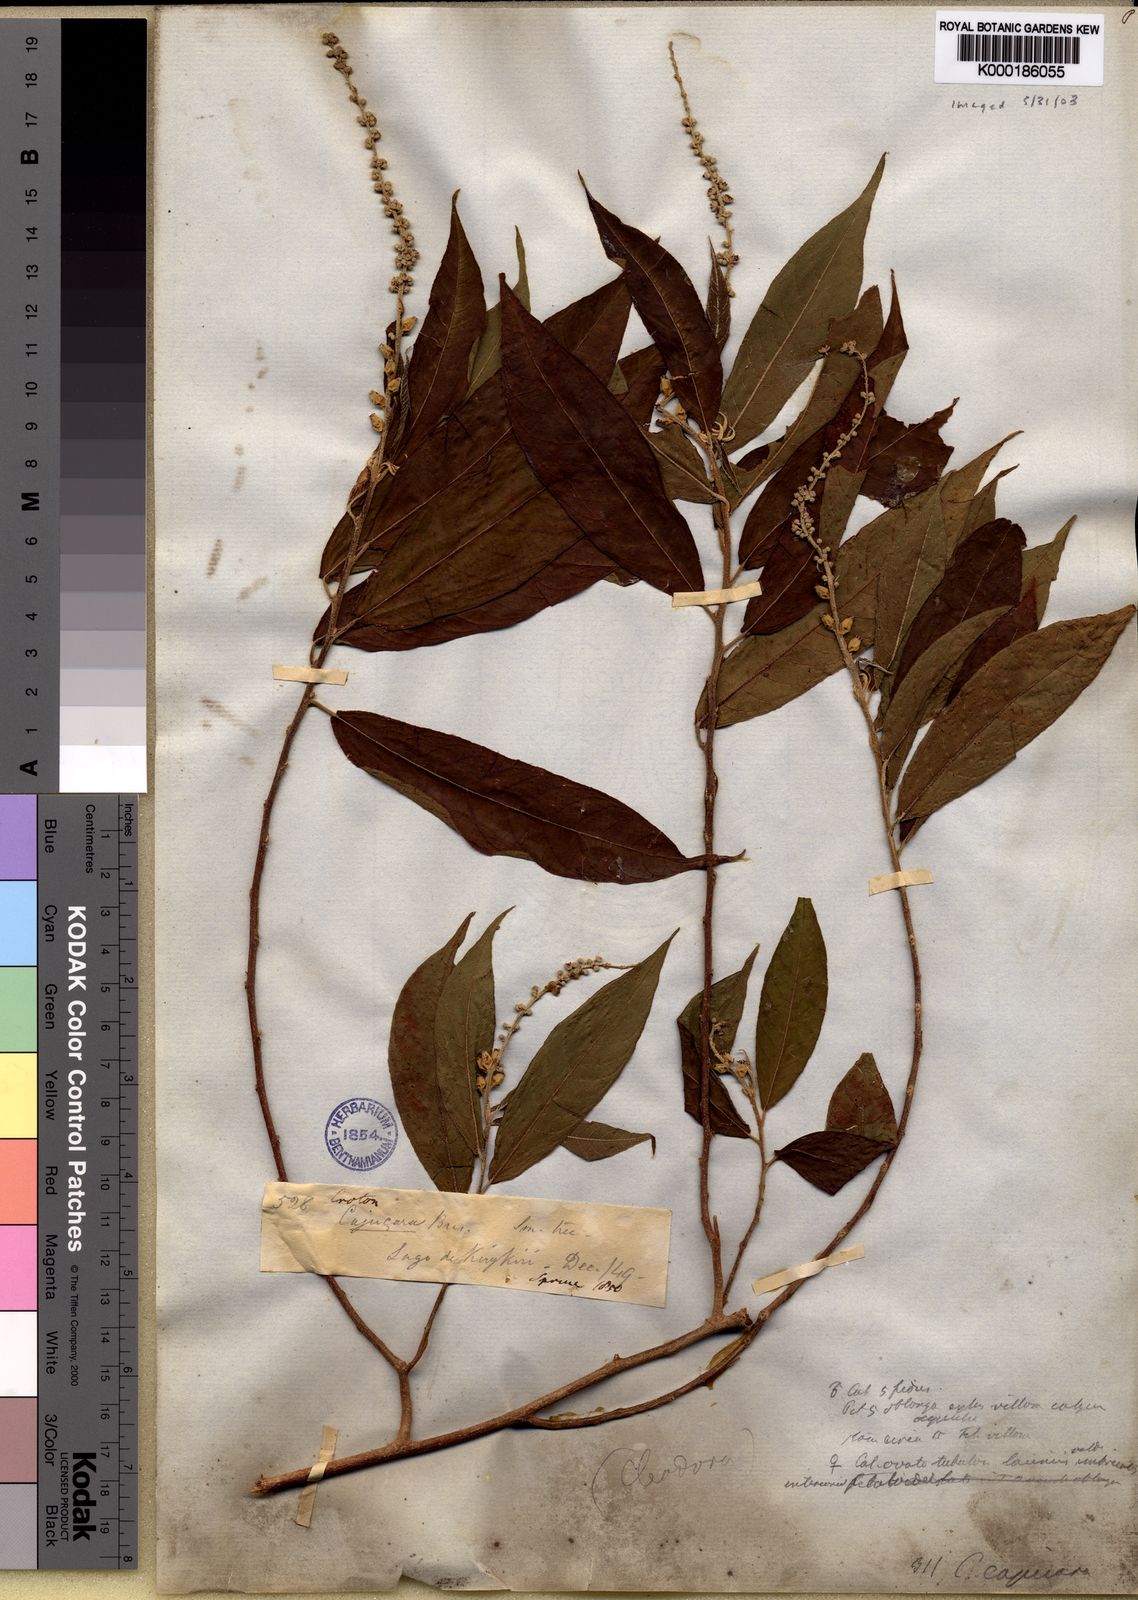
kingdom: Plantae
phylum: Tracheophyta
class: Magnoliopsida
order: Malpighiales
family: Euphorbiaceae
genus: Croton
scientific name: Croton cajucara
